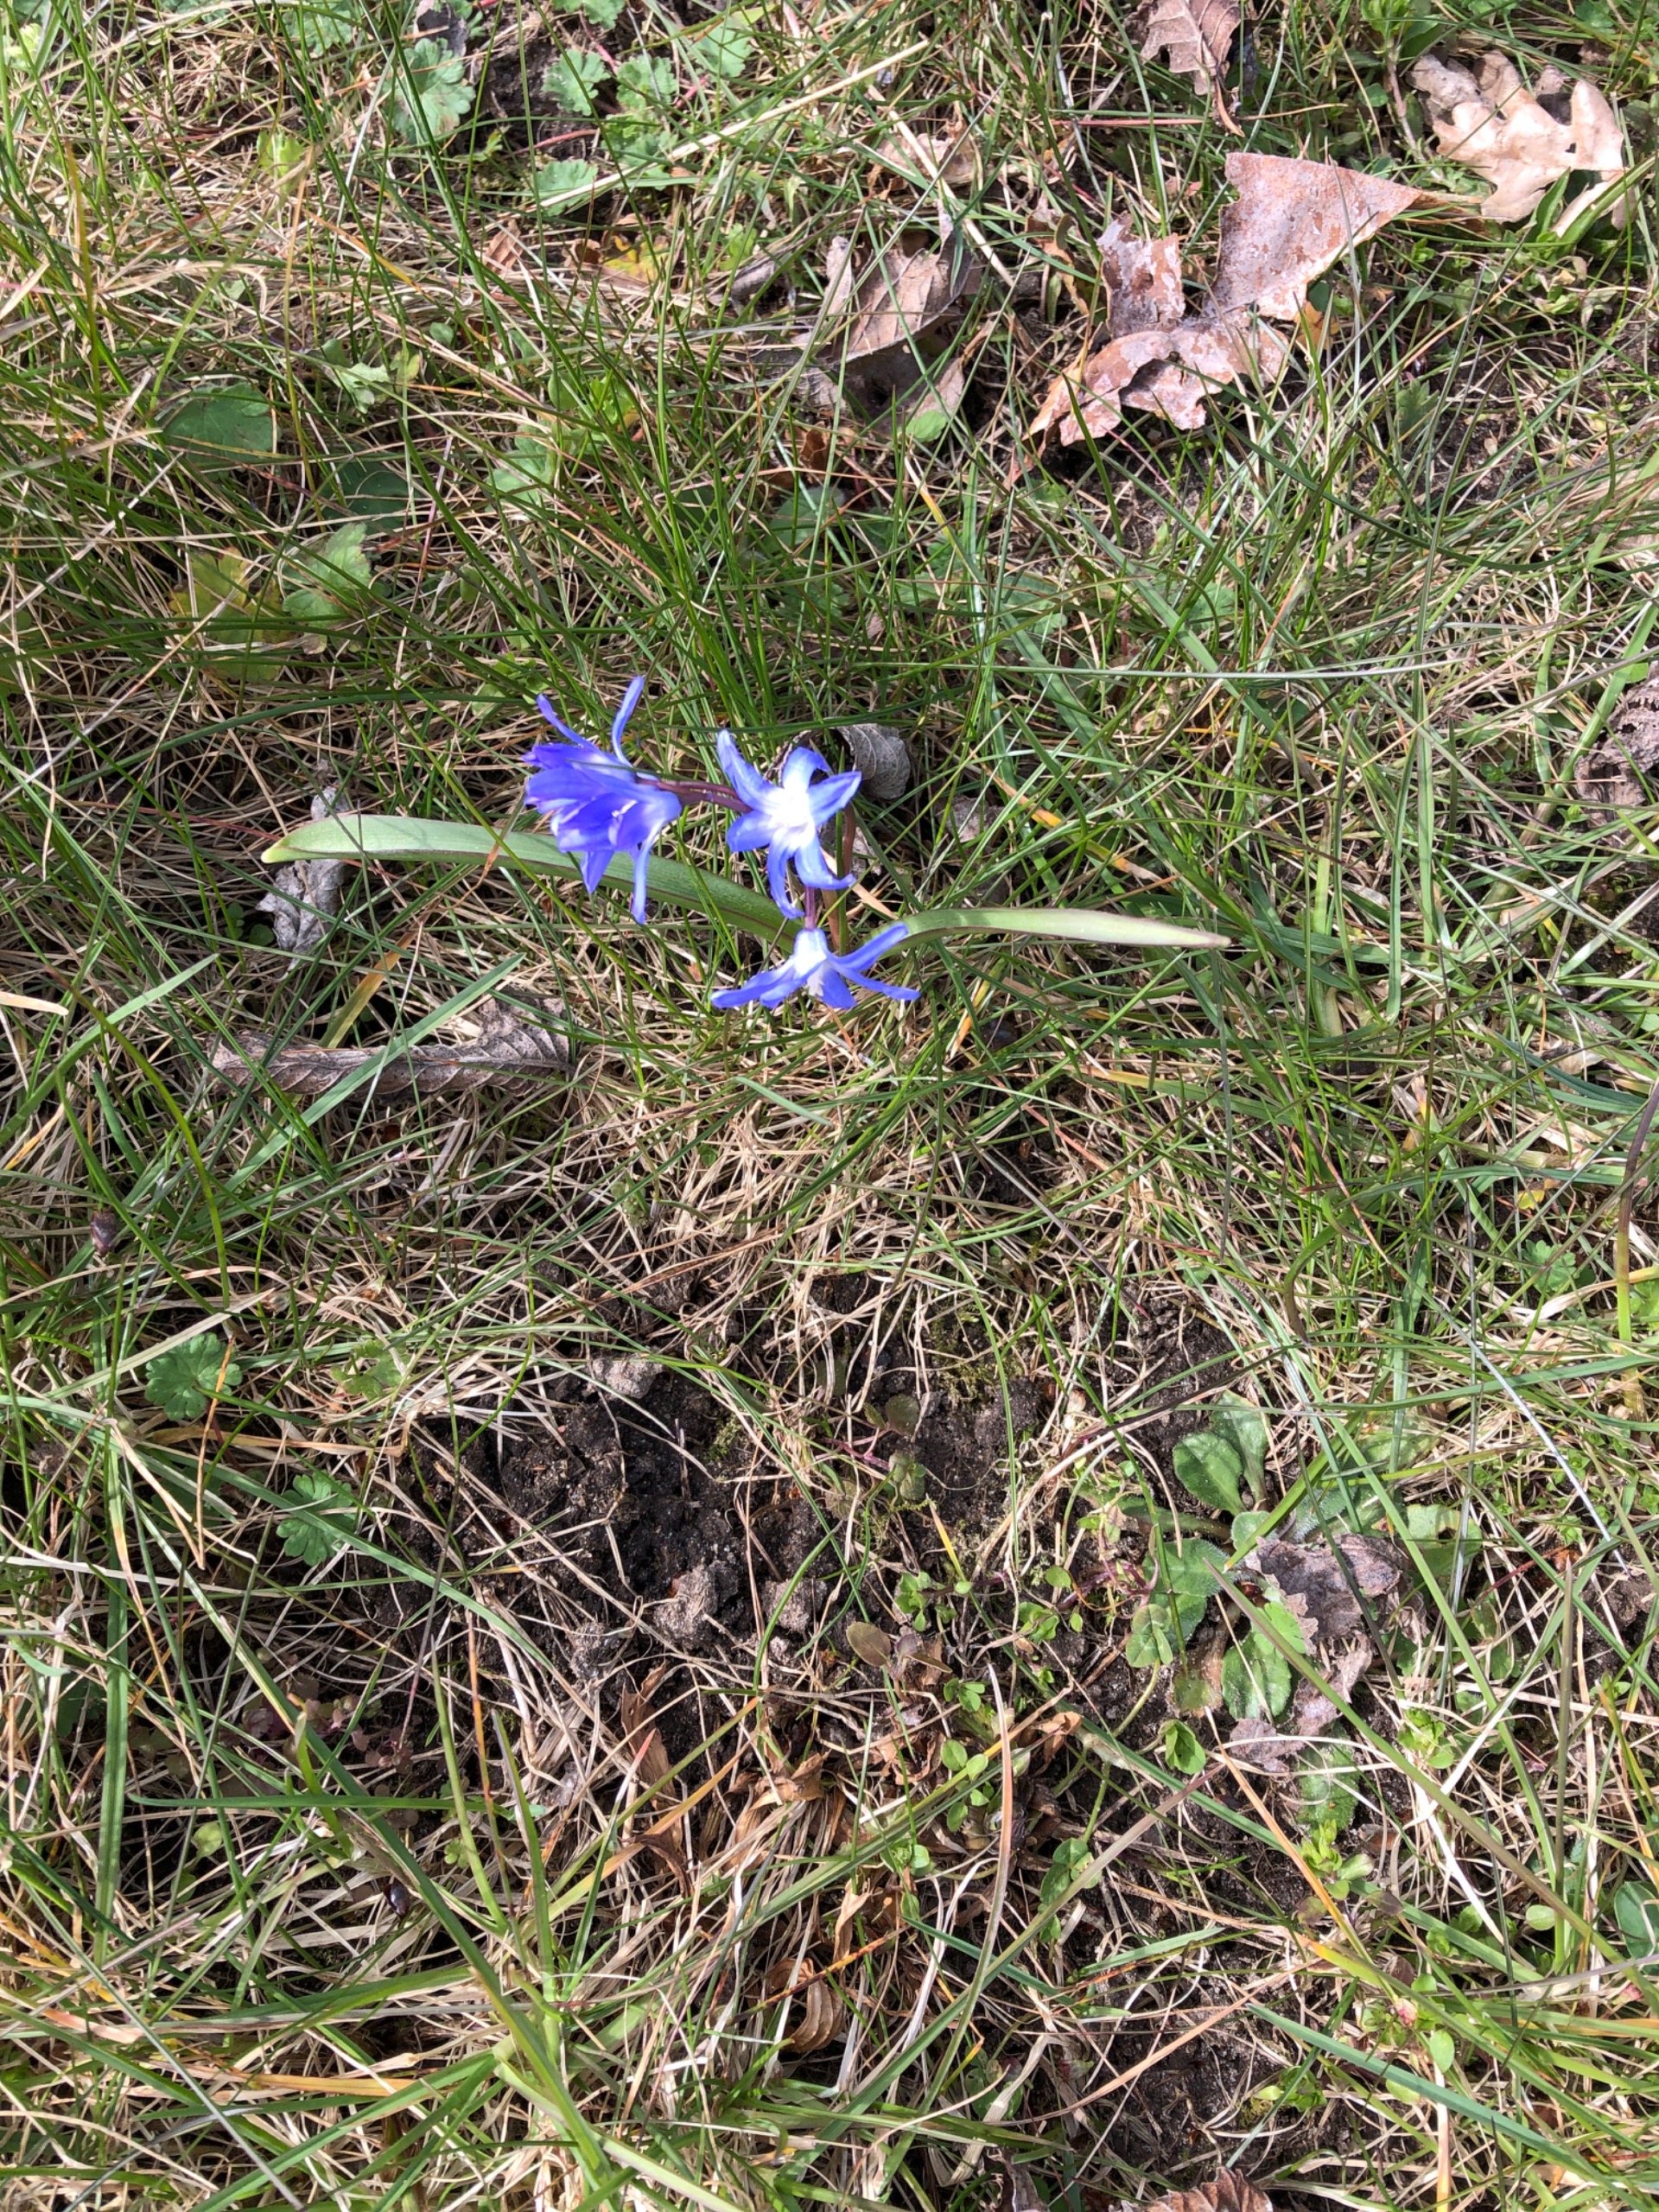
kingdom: Plantae
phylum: Tracheophyta
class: Liliopsida
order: Asparagales
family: Asparagaceae
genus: Scilla
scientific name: Scilla forbesii
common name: Almindelig snepryd
